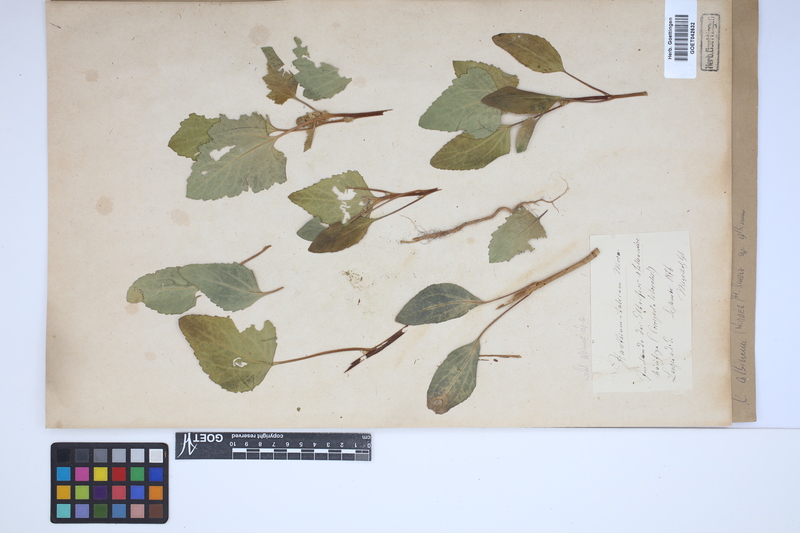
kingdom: Plantae
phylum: Tracheophyta
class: Magnoliopsida
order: Asterales
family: Asteraceae
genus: Xanthium
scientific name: Xanthium orientale
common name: Californian burr
